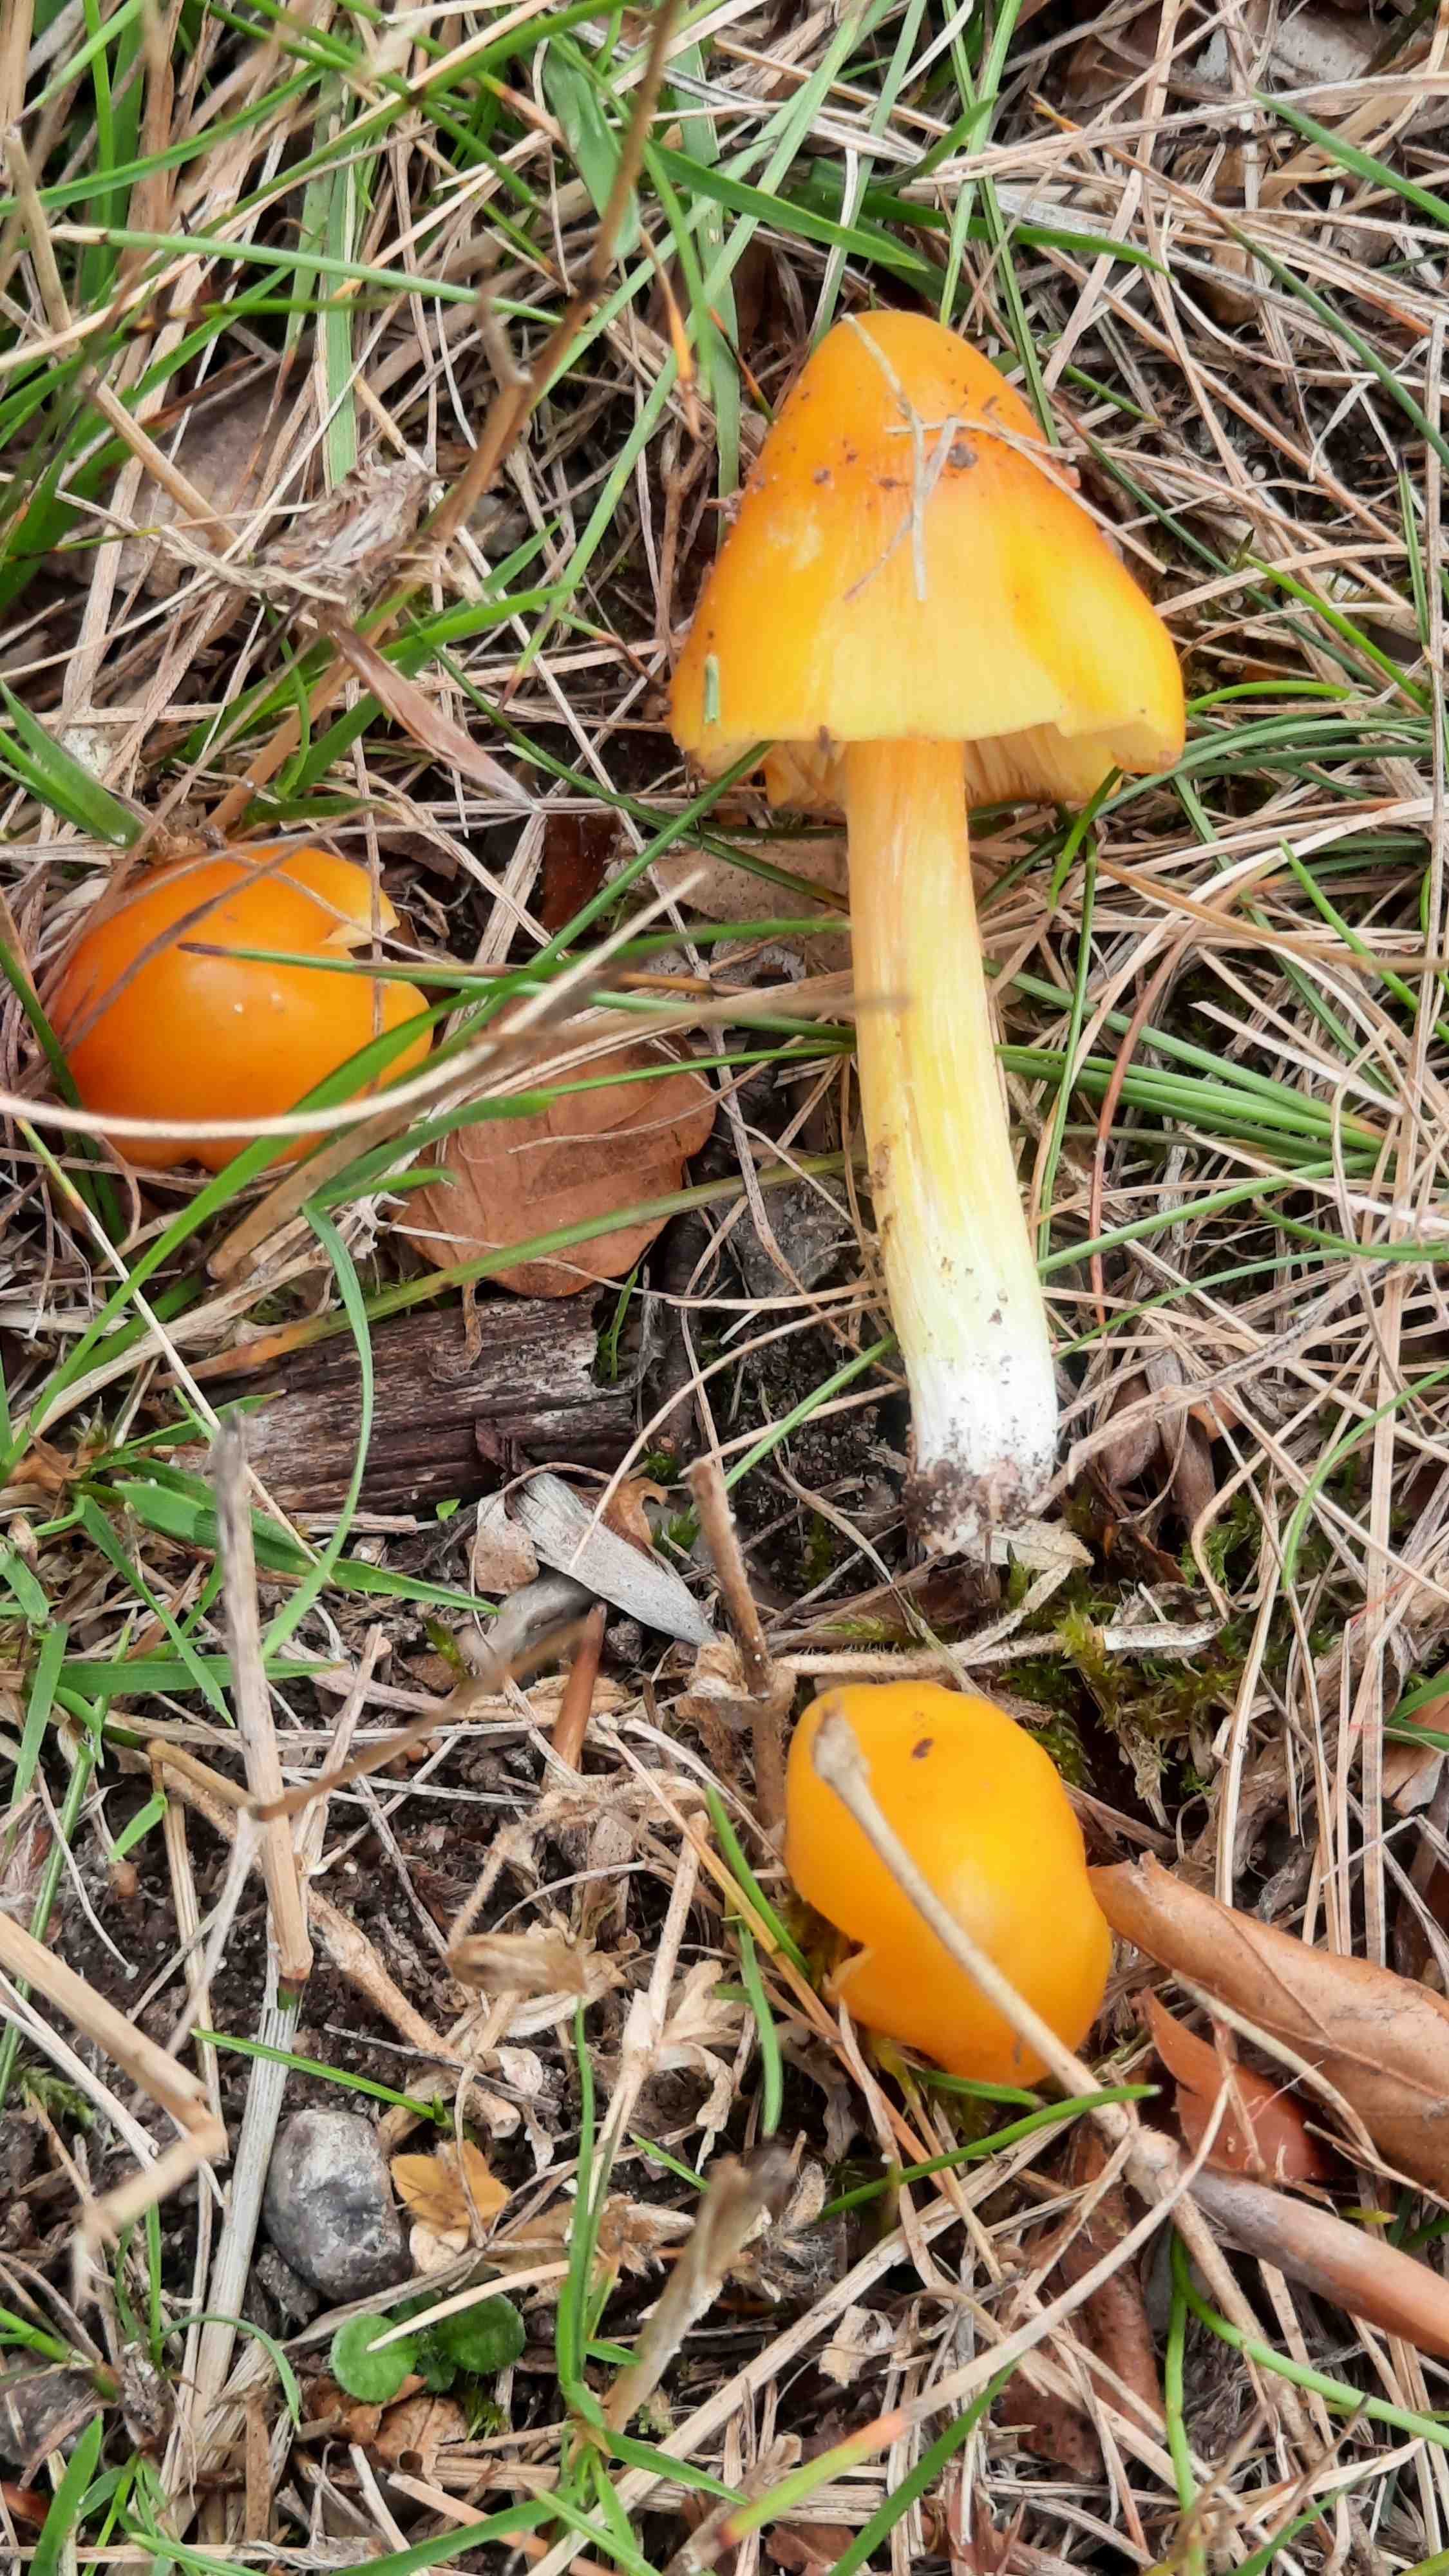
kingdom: Fungi
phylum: Basidiomycota
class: Agaricomycetes
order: Agaricales
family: Hygrophoraceae
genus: Hygrocybe
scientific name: Hygrocybe conica
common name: kegle-vokshat
